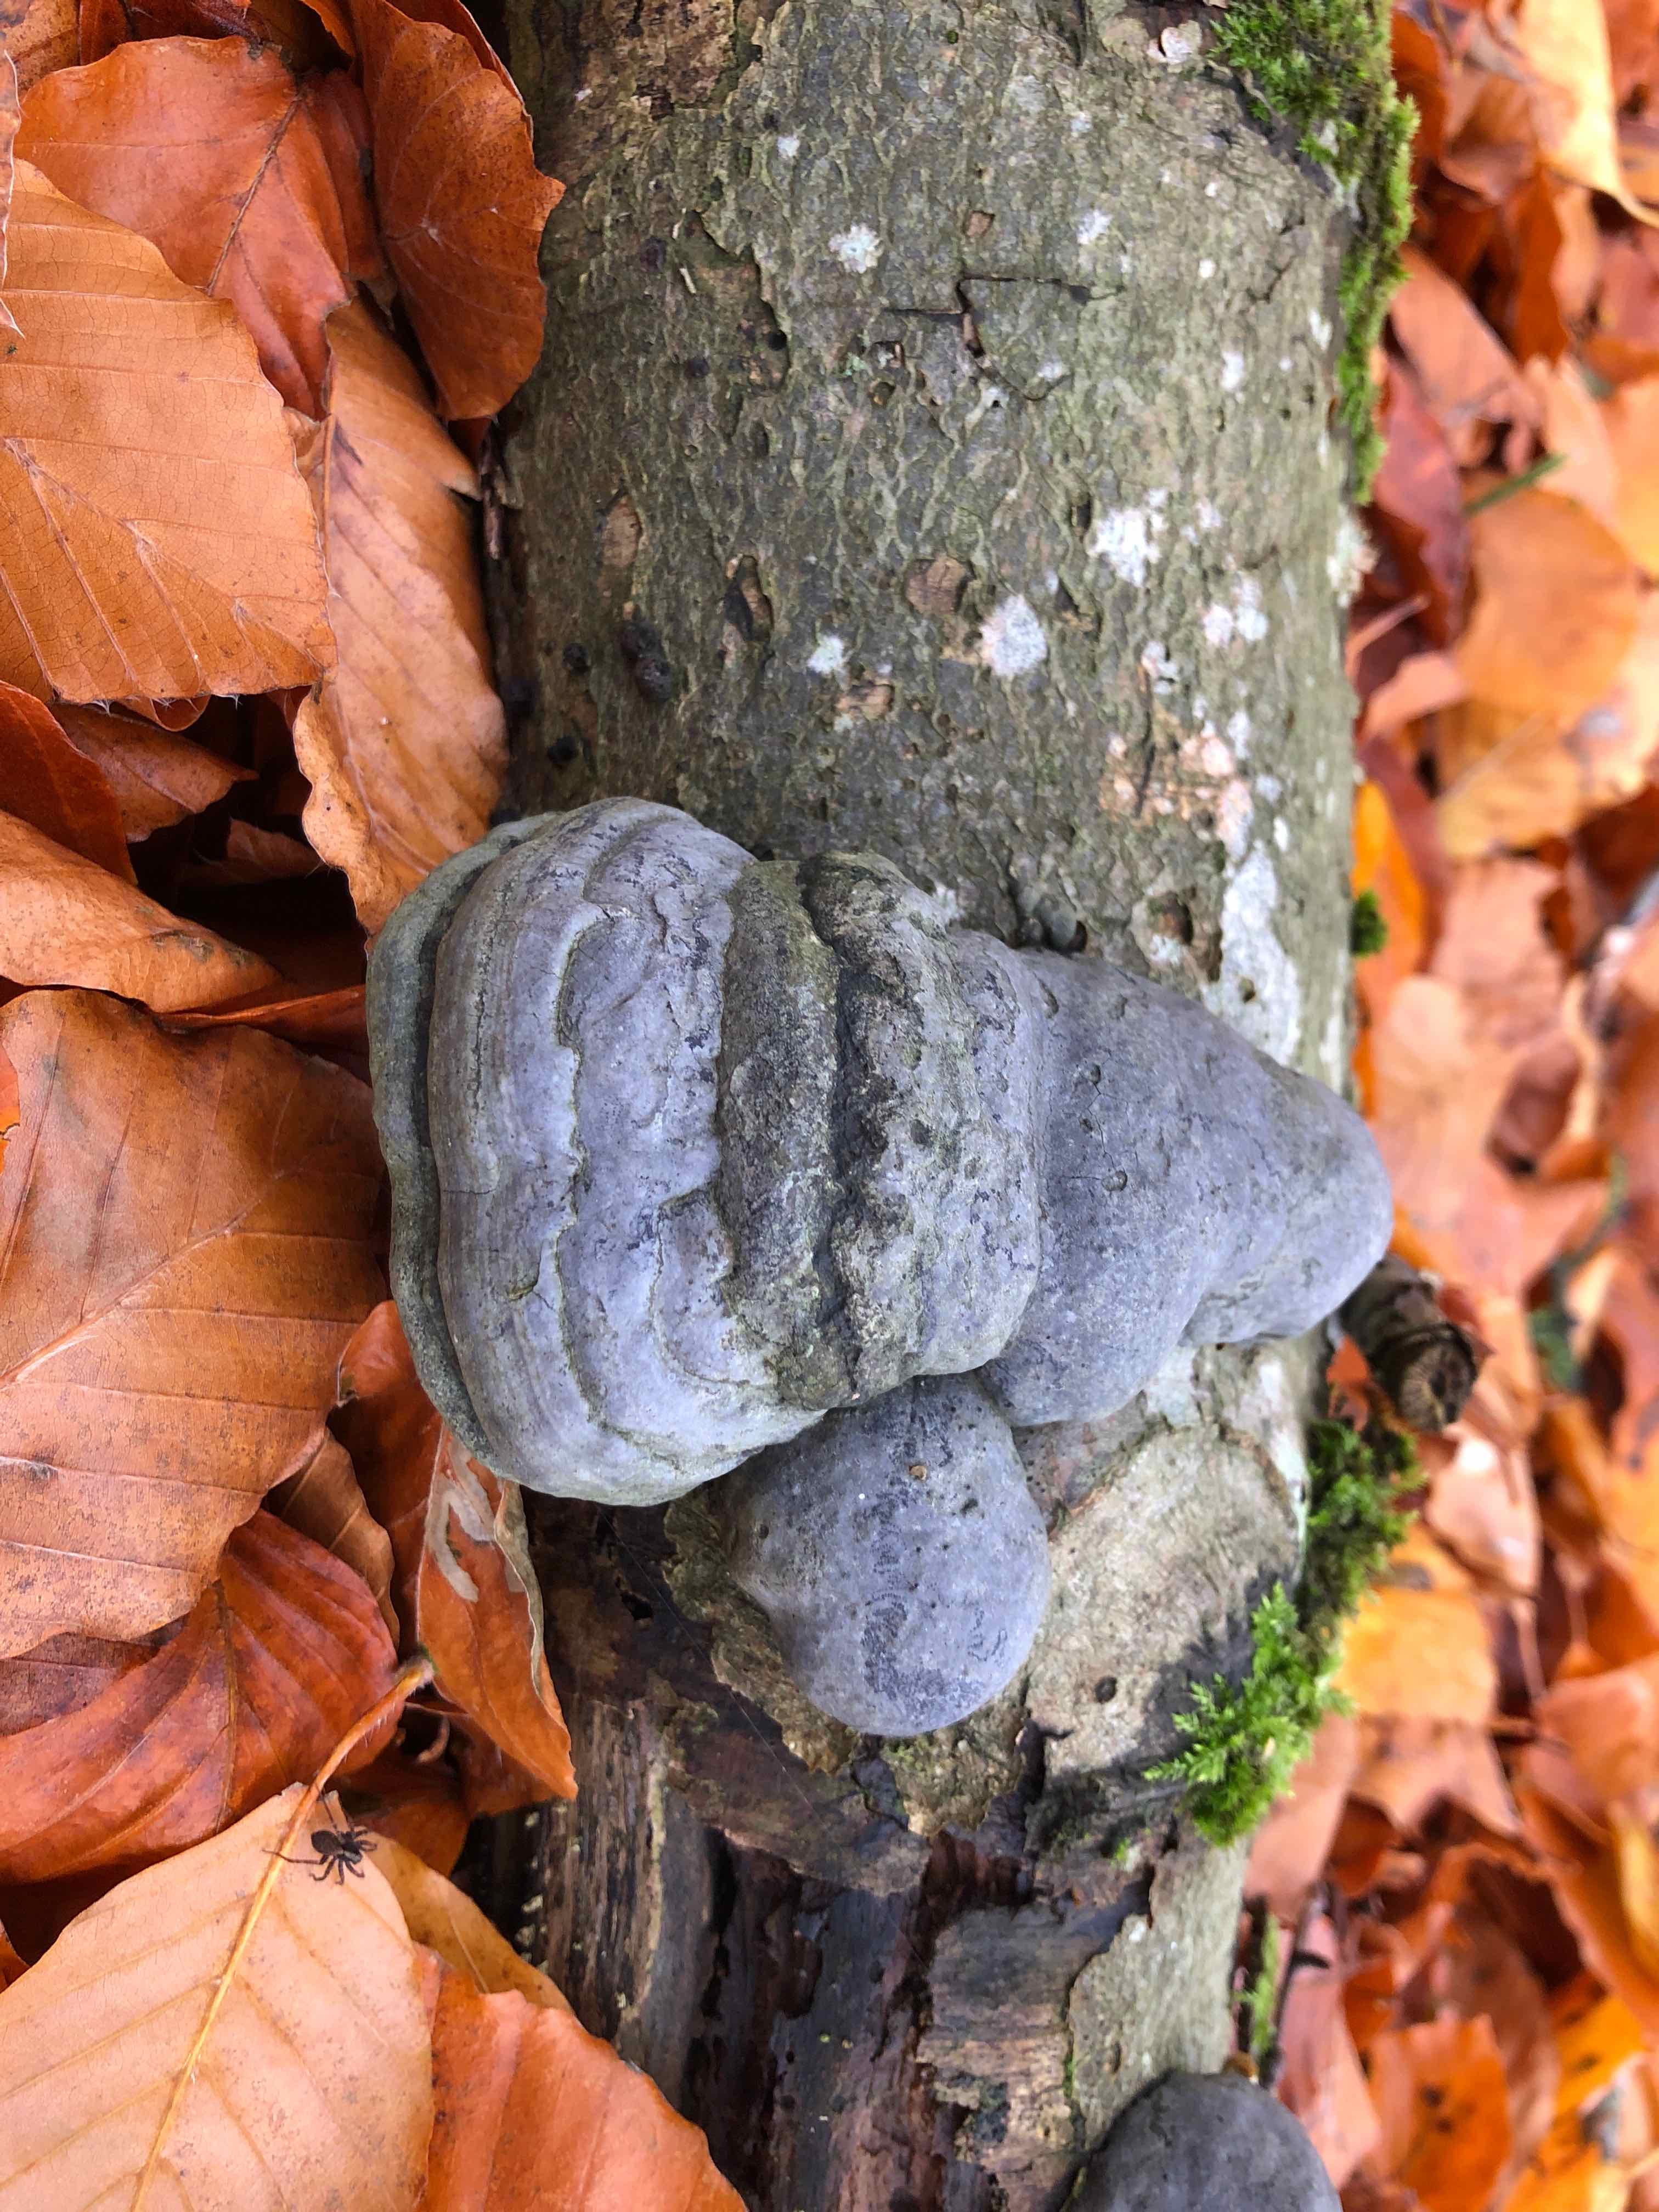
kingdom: Fungi
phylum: Basidiomycota
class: Agaricomycetes
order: Polyporales
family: Polyporaceae
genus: Fomes
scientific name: Fomes fomentarius
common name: tøndersvamp
